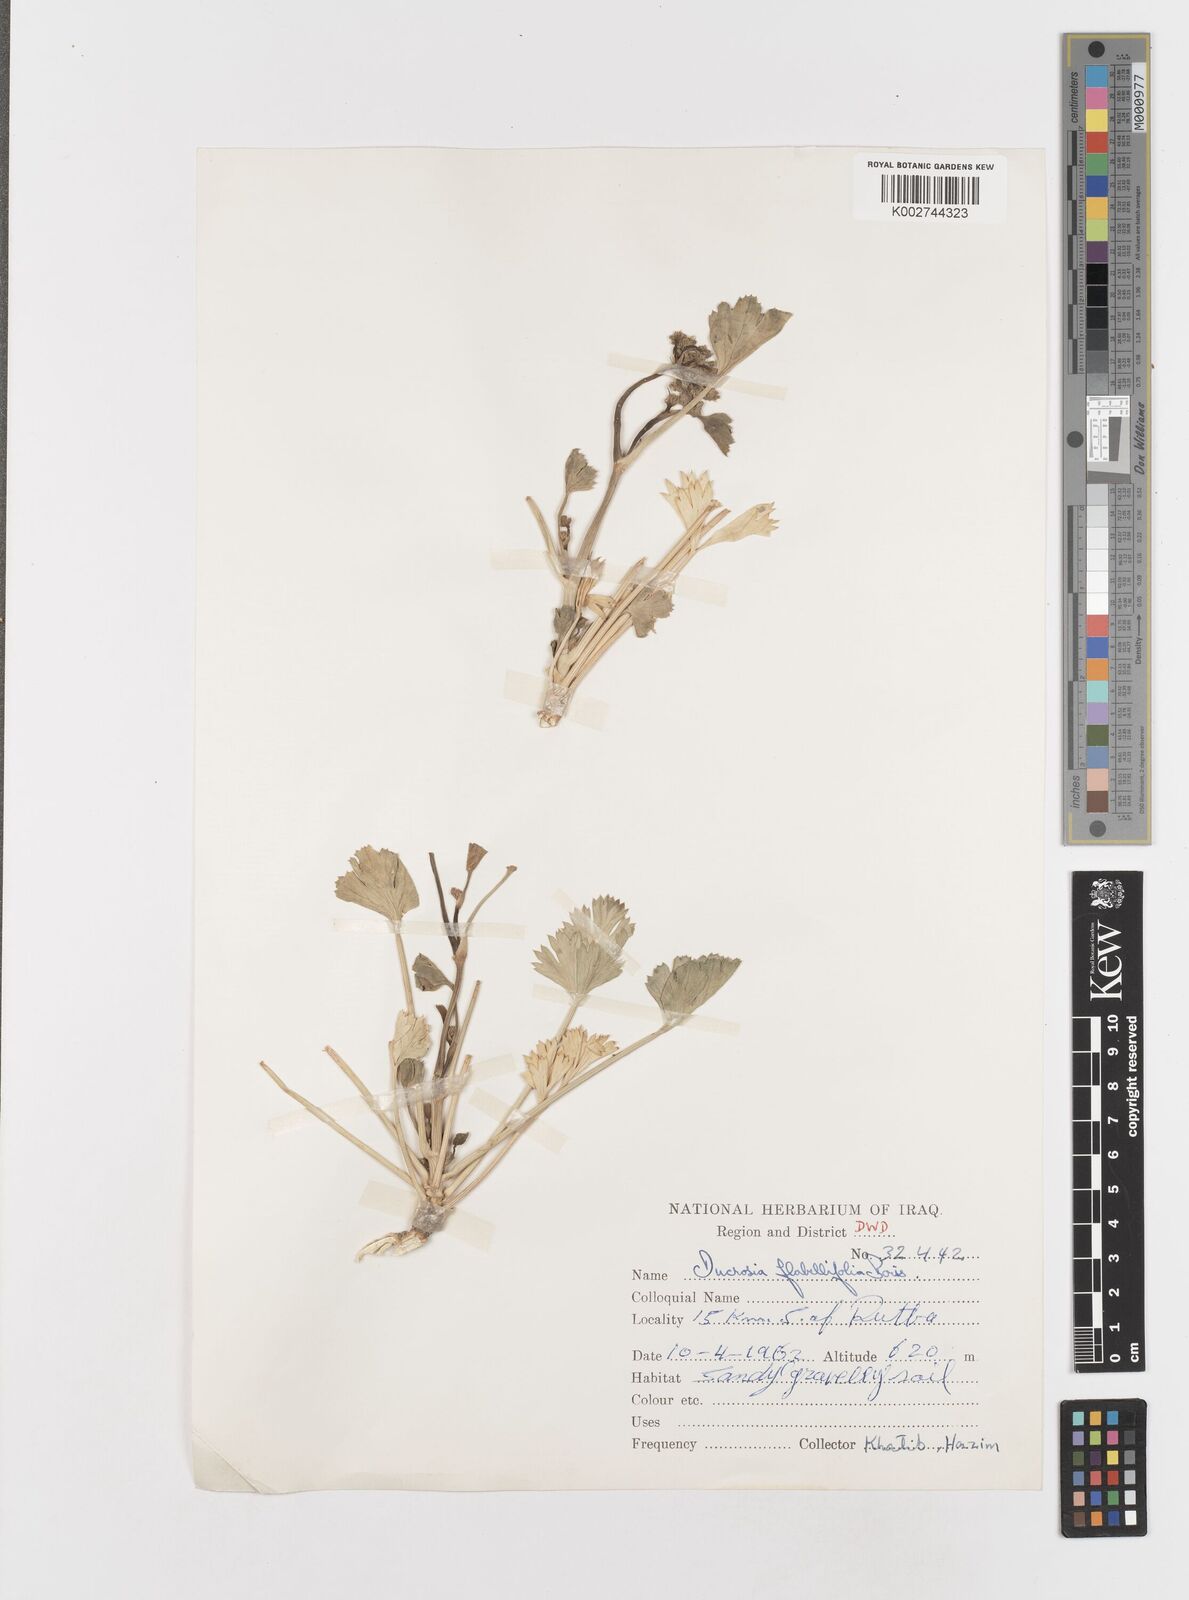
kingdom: Plantae
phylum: Tracheophyta
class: Magnoliopsida
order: Apiales
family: Apiaceae
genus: Ducrosia
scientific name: Ducrosia flabellifolia
